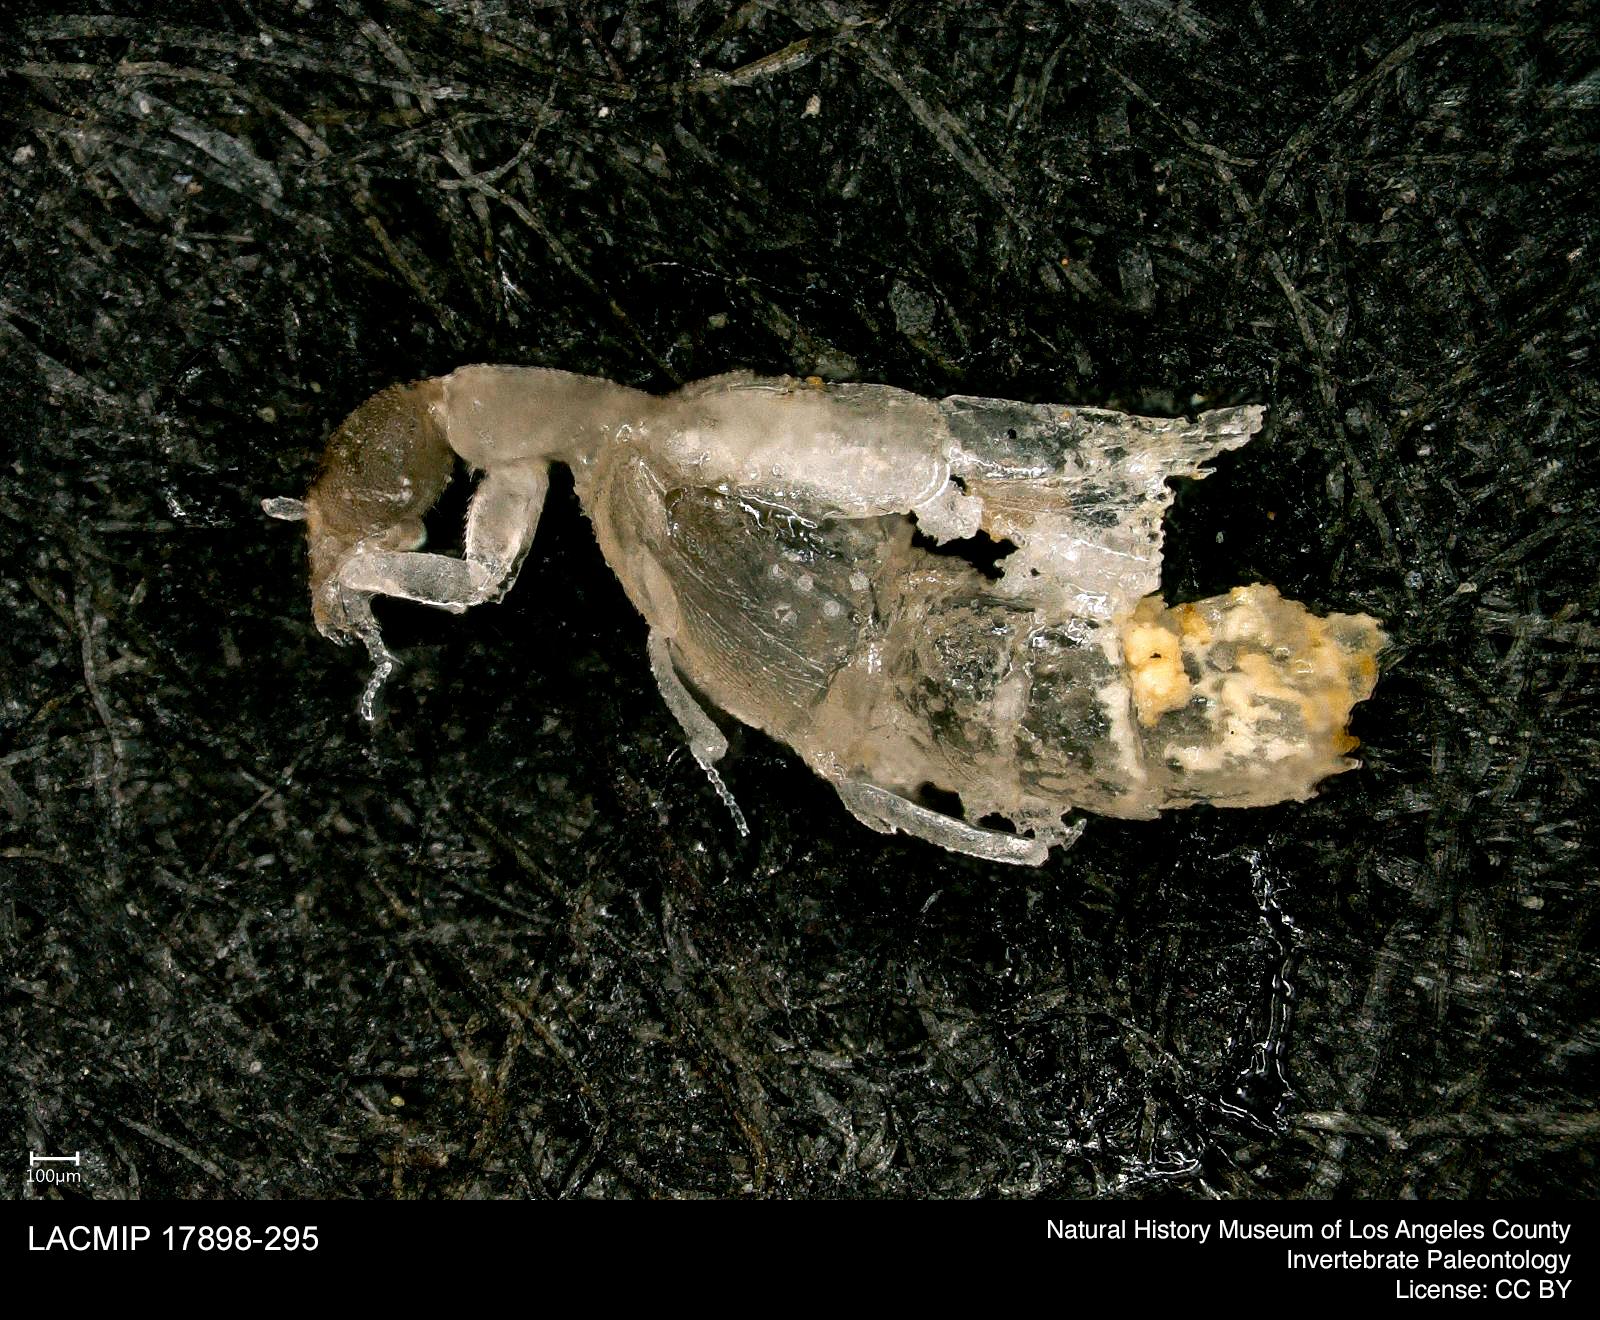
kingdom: Animalia
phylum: Arthropoda
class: Insecta
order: Coleoptera
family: Staphylinidae
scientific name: Staphylinidae
